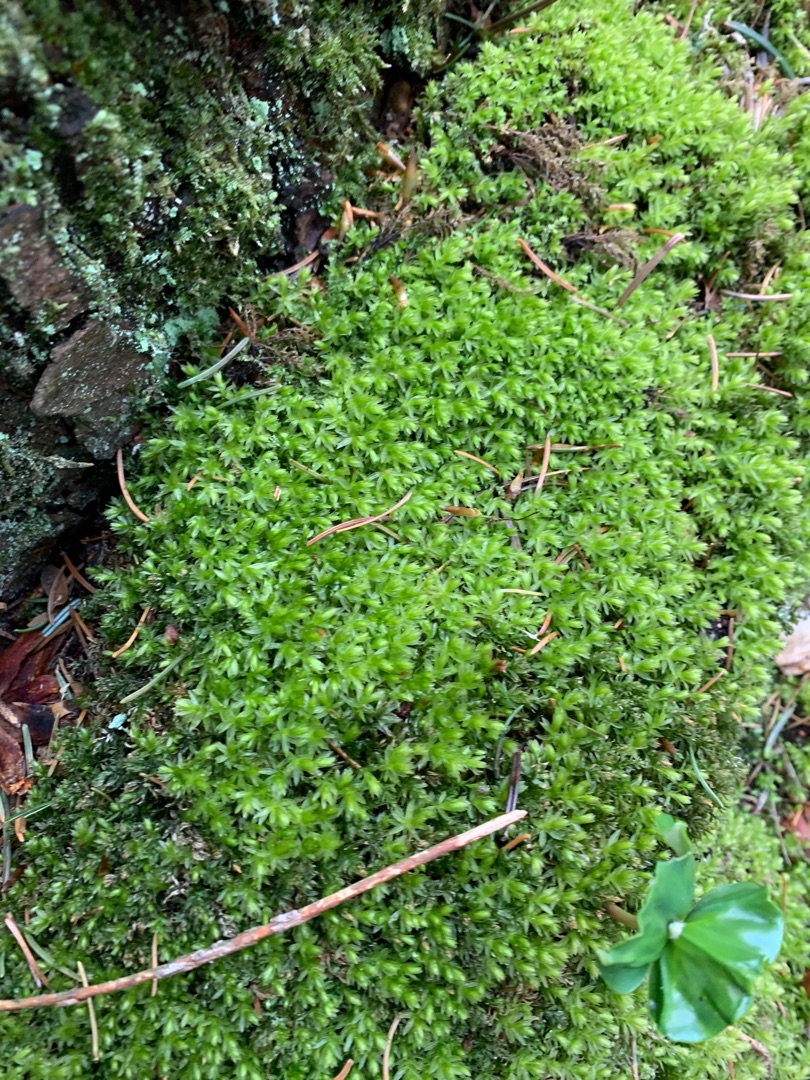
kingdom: Plantae
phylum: Bryophyta
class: Bryopsida
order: Bryales
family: Mniaceae
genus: Mnium
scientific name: Mnium hornum
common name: Brunfiltet stjernemos
